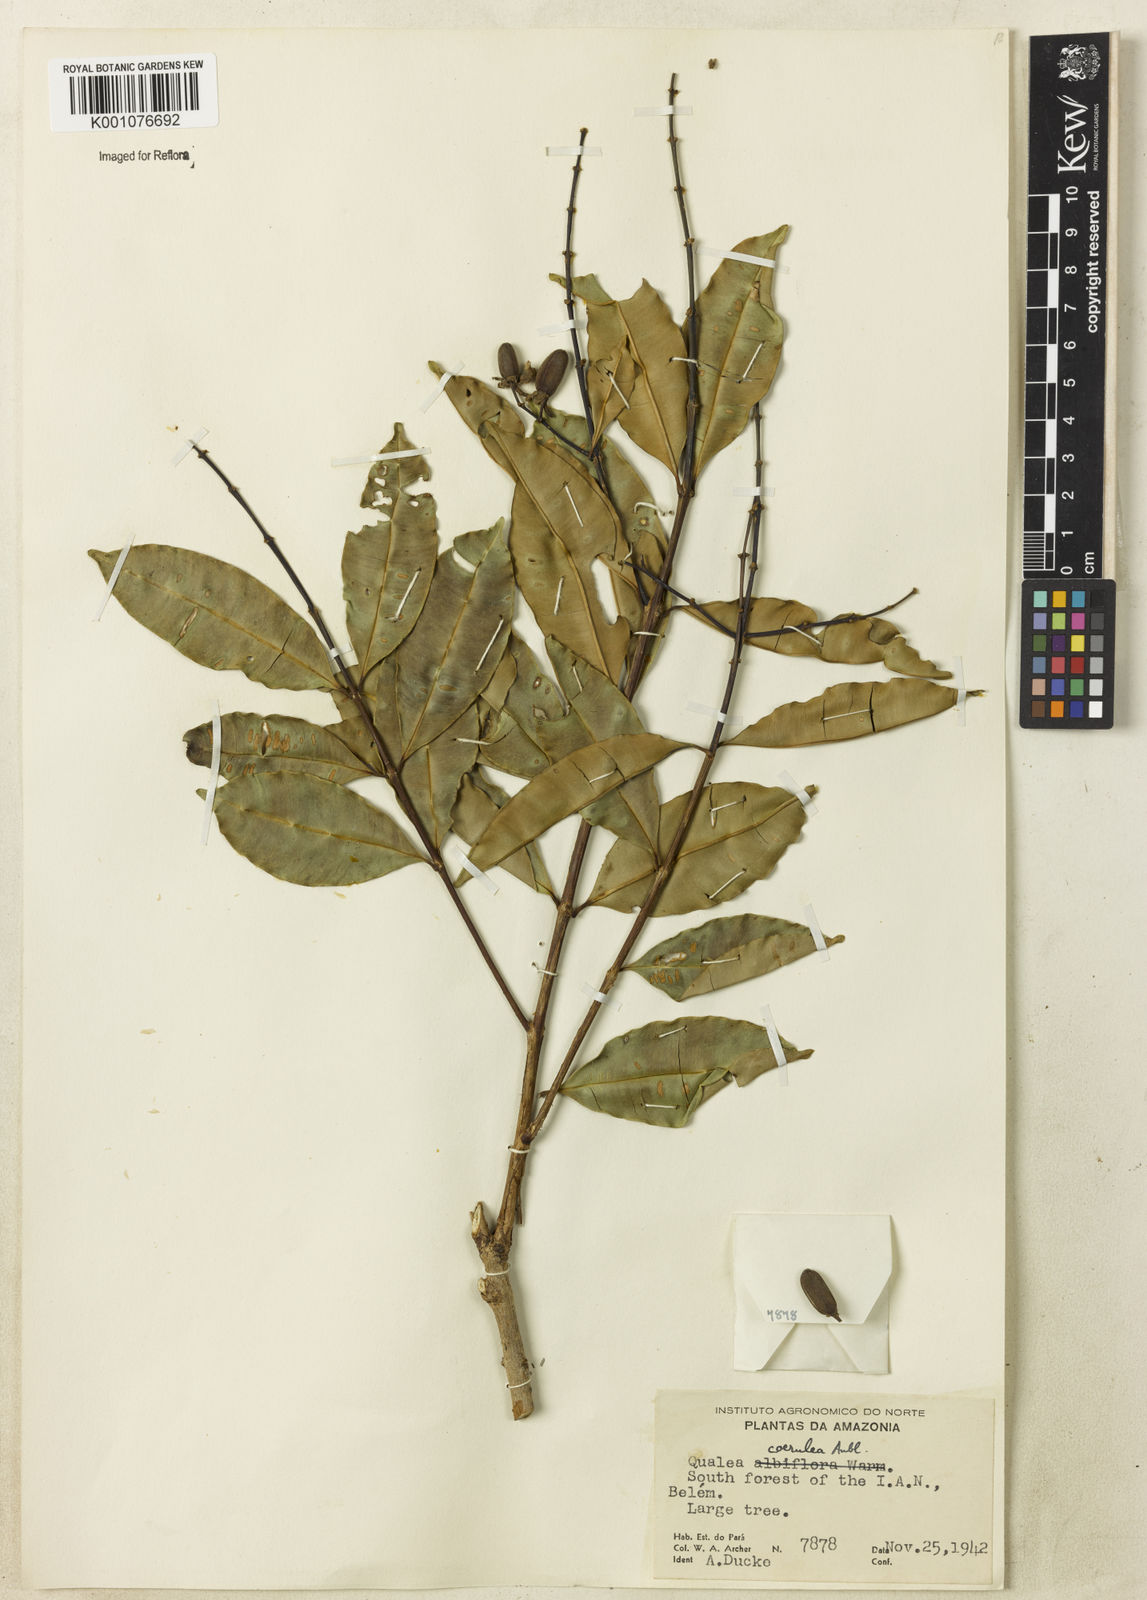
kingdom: Plantae
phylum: Tracheophyta
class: Magnoliopsida
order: Myrtales
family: Vochysiaceae
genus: Qualea
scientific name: Qualea
